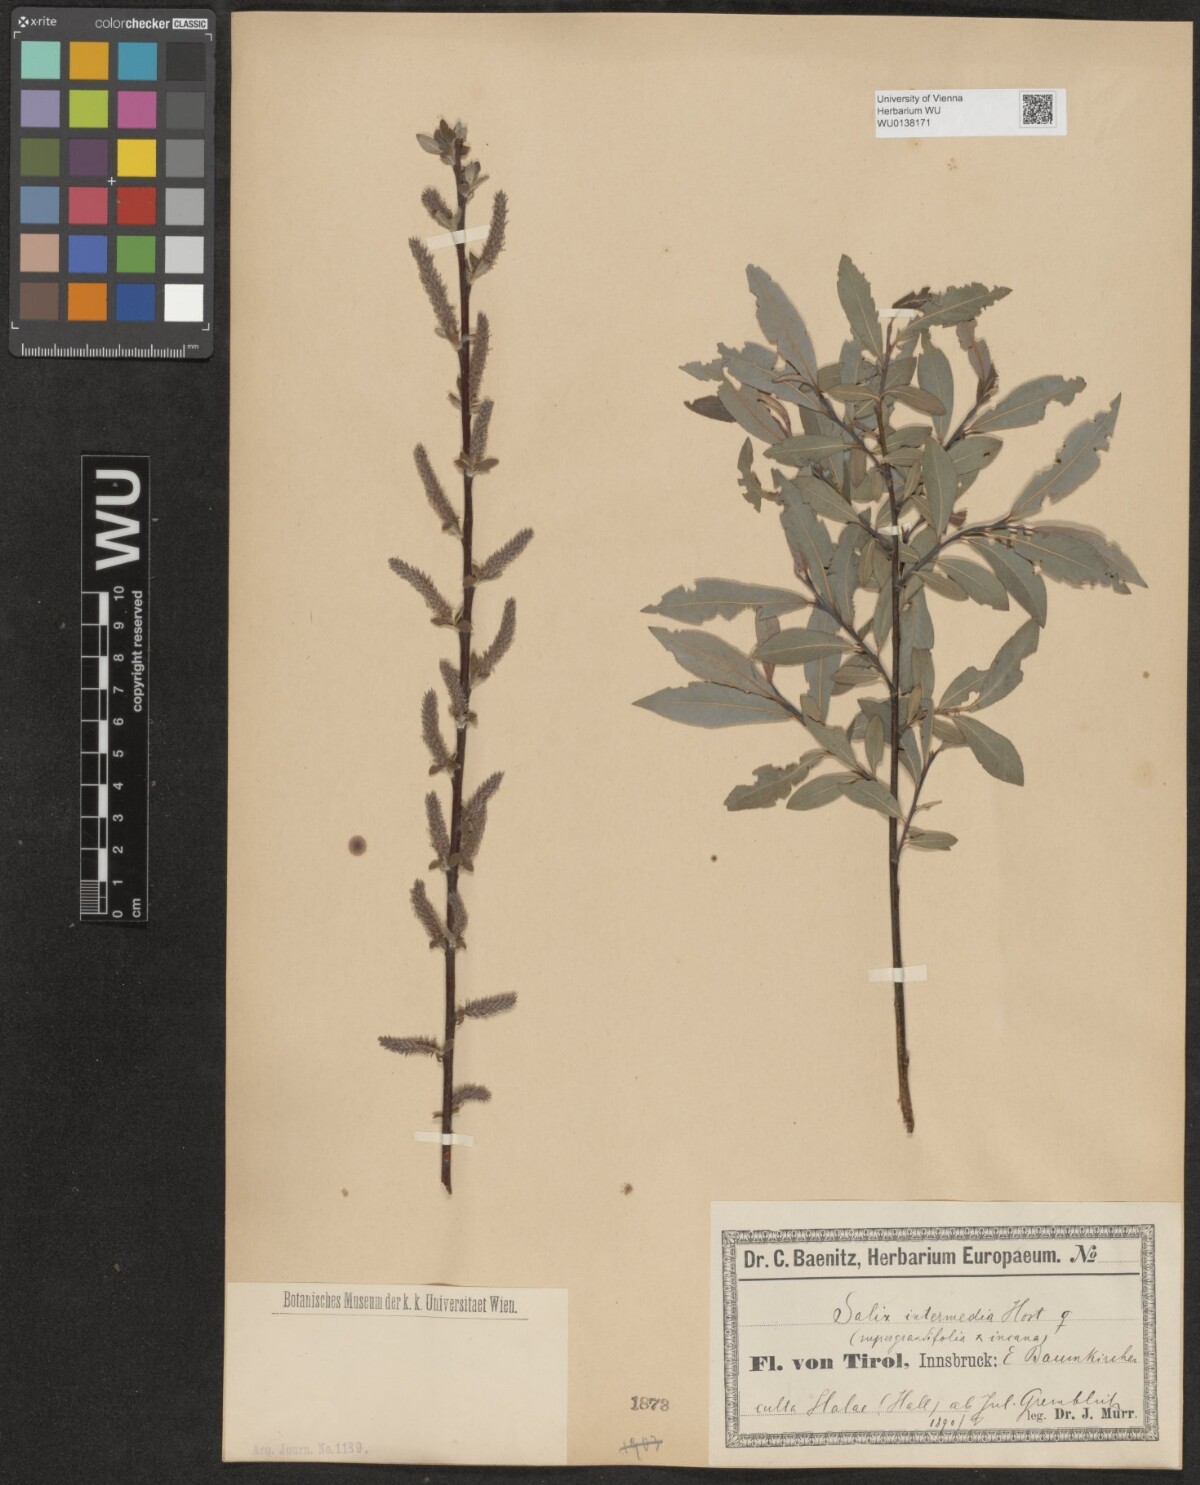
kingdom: Plantae
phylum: Tracheophyta
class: Magnoliopsida
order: Malpighiales
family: Salicaceae
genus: Salix
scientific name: Salix intermedia
